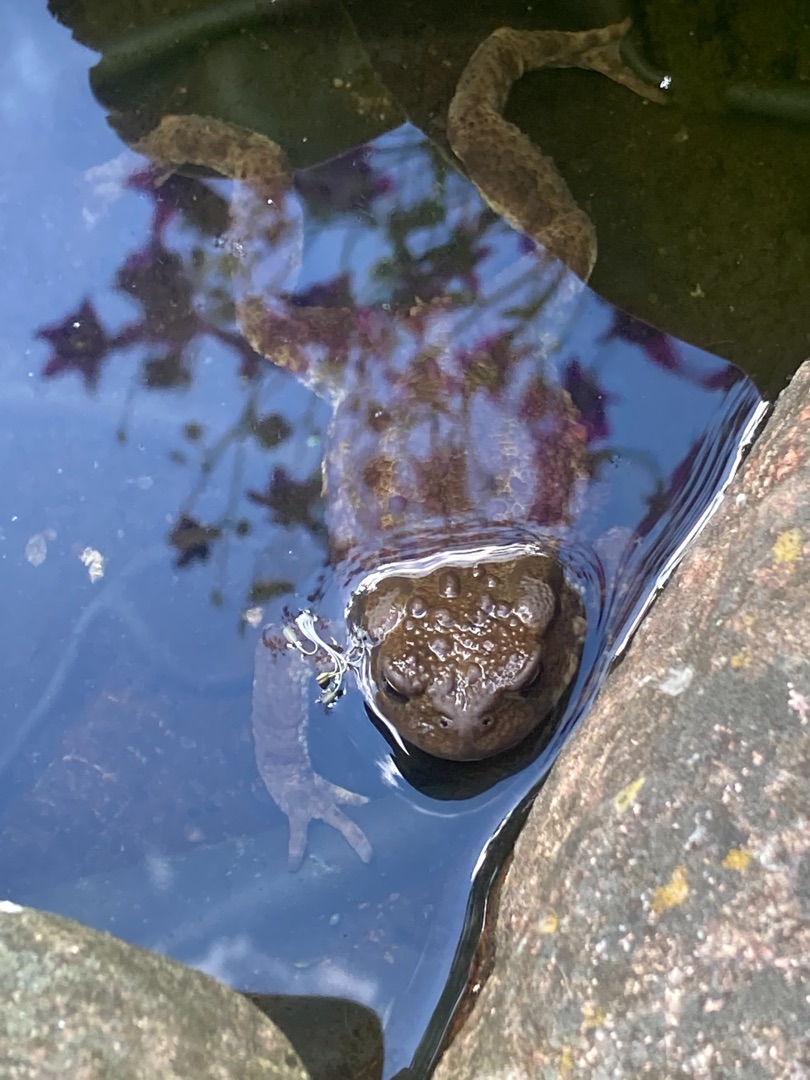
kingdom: Animalia
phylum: Chordata
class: Amphibia
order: Anura
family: Bufonidae
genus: Bufo
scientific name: Bufo bufo
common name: Skrubtudse
